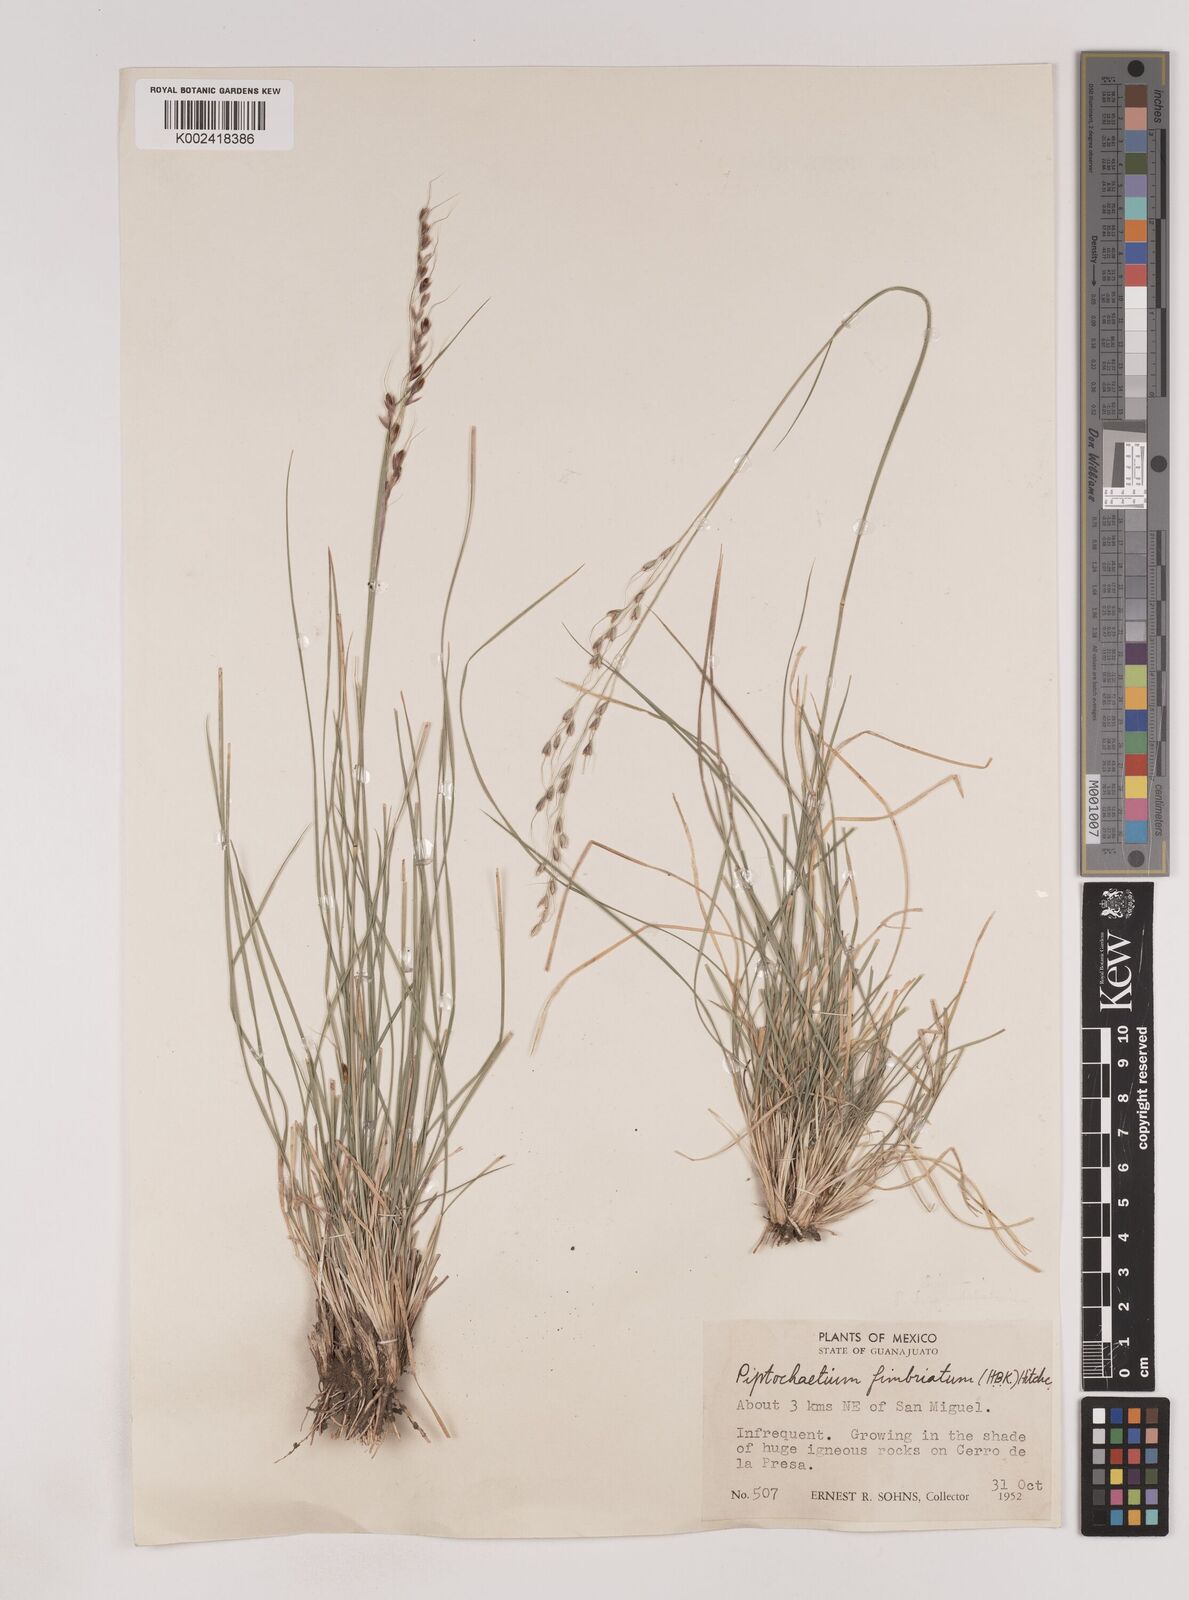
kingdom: Plantae
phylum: Tracheophyta
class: Liliopsida
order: Poales
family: Poaceae
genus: Piptochaetium
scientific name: Piptochaetium fimbriatum
